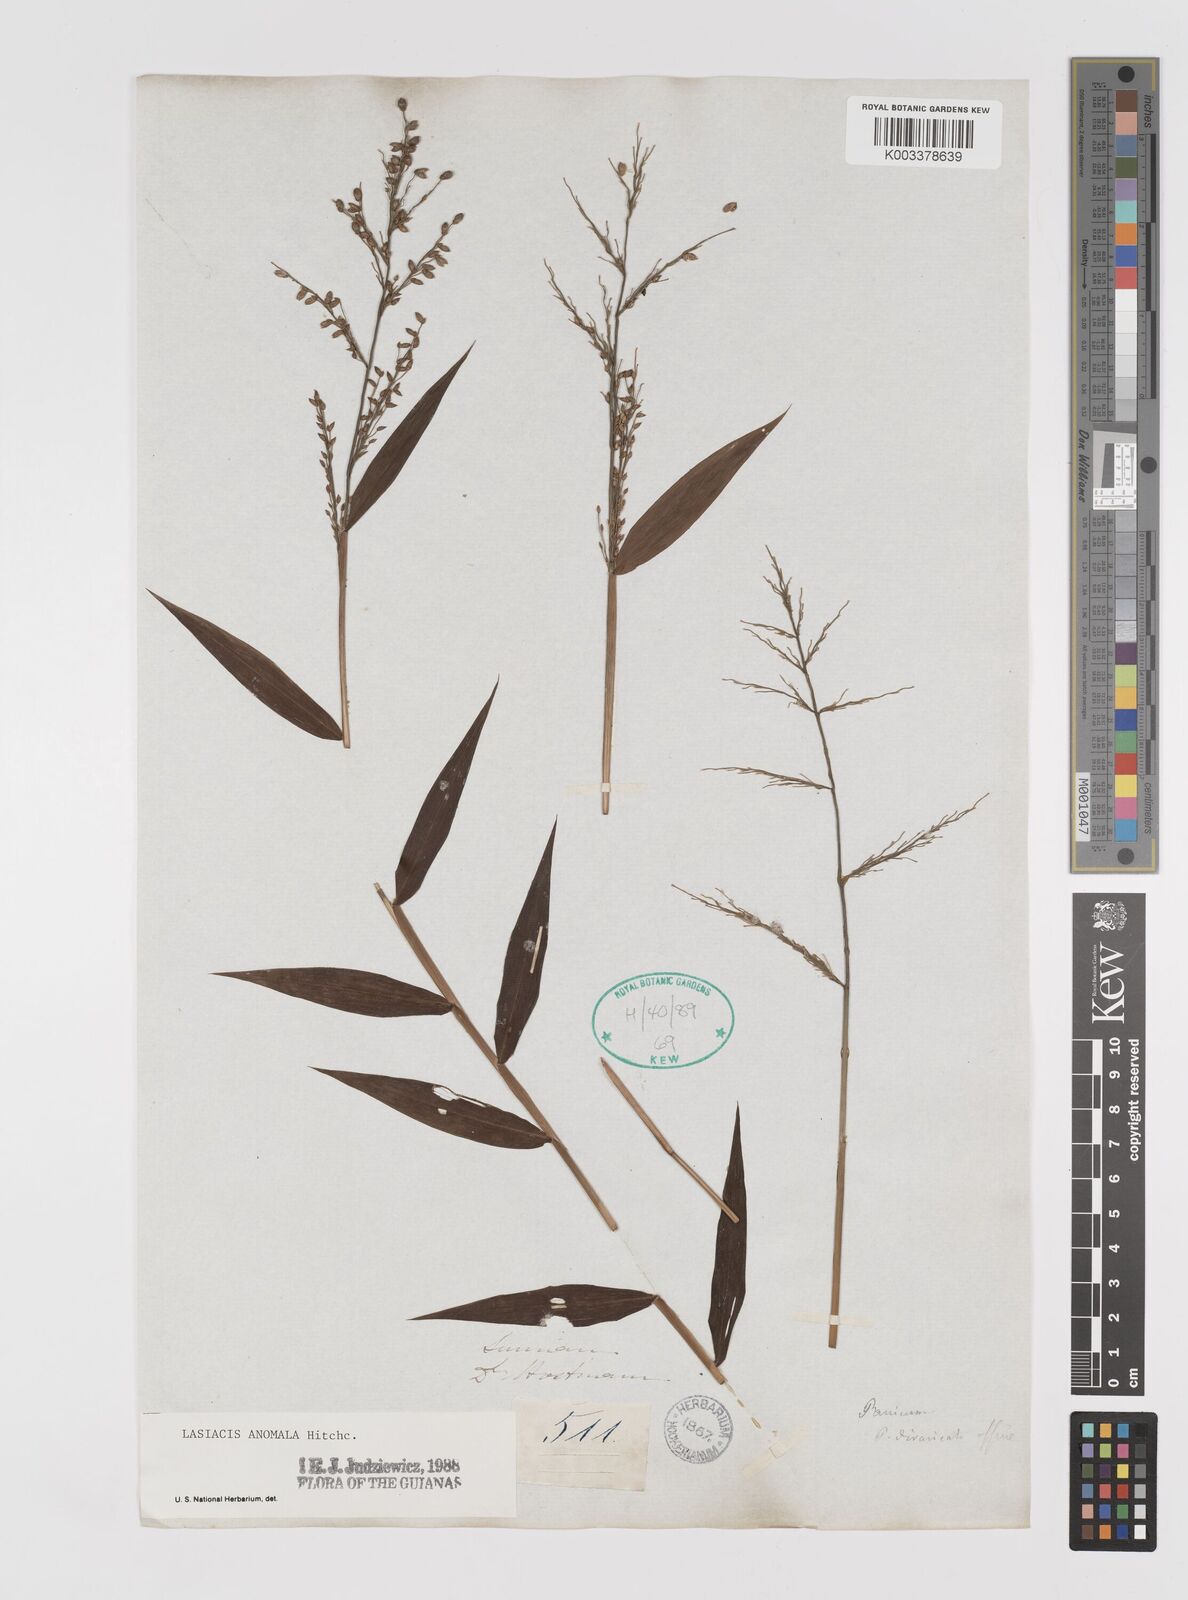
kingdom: Plantae
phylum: Tracheophyta
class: Liliopsida
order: Poales
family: Poaceae
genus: Lasiacis
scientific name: Lasiacis anomala
